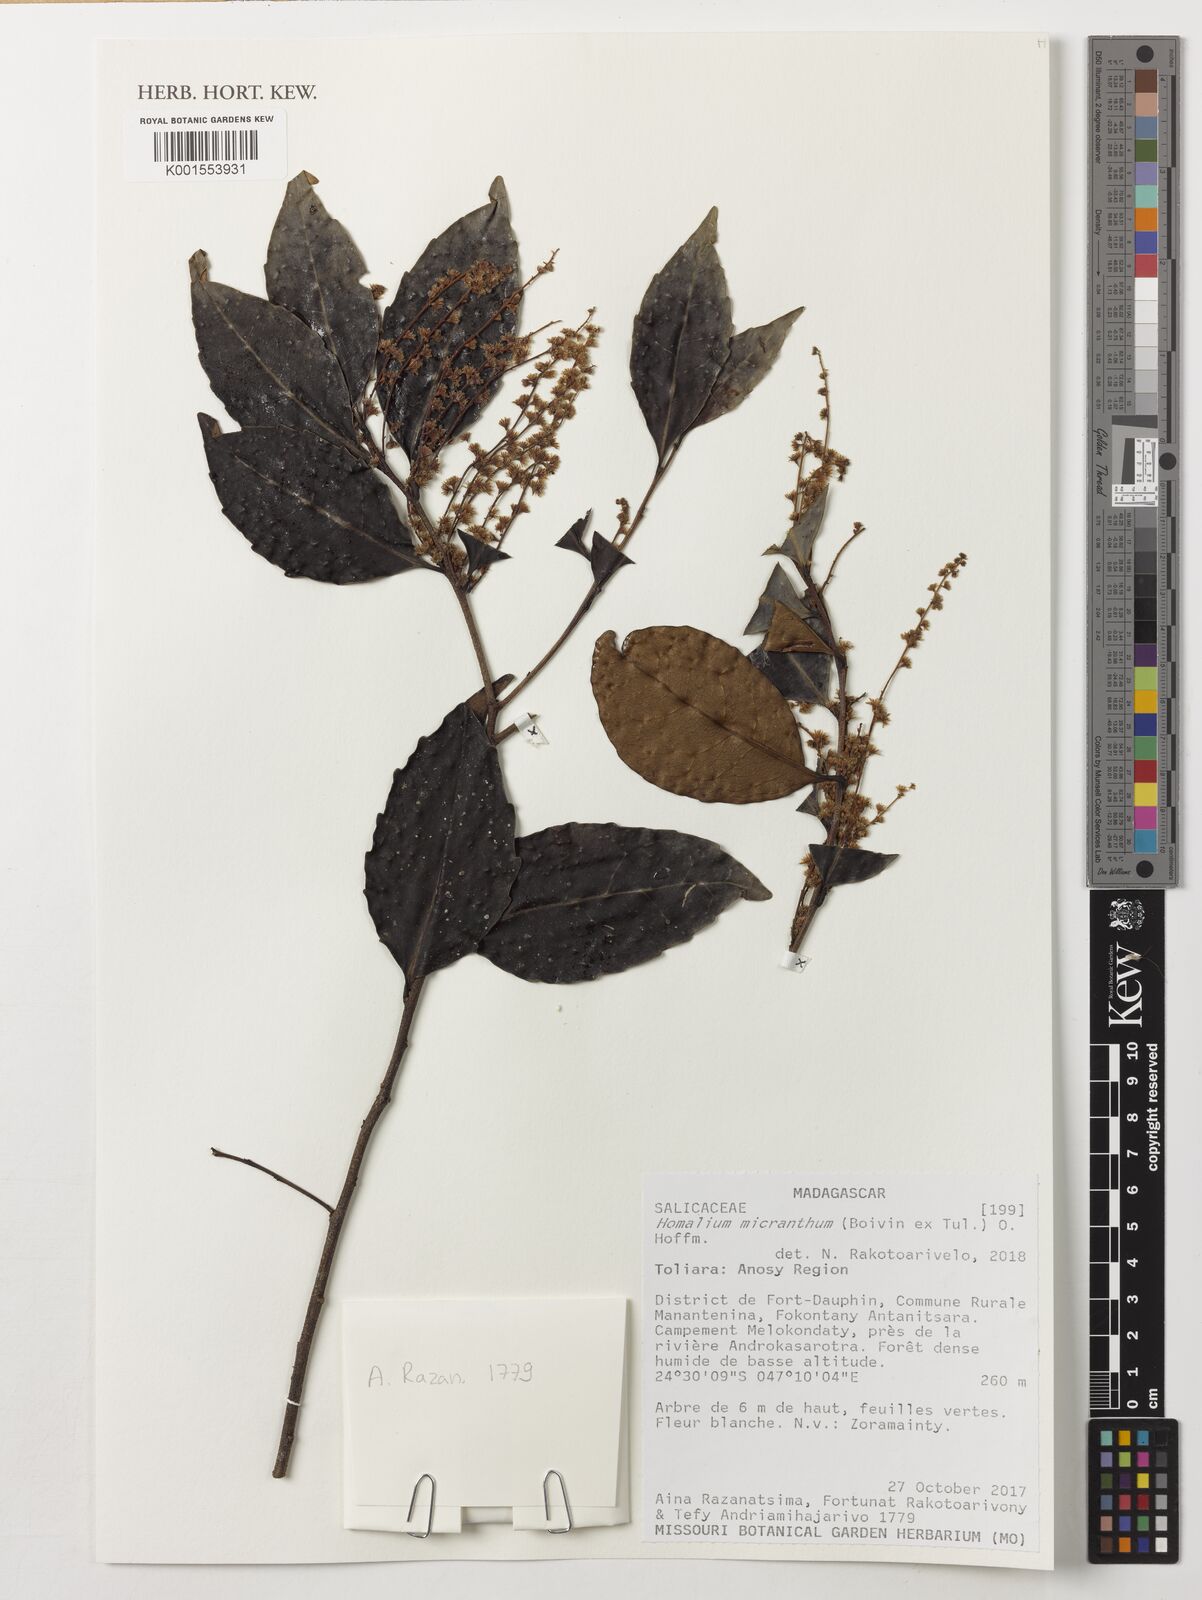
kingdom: Plantae
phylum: Tracheophyta
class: Magnoliopsida
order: Malpighiales
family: Salicaceae
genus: Homalium
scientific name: Homalium micranthum
